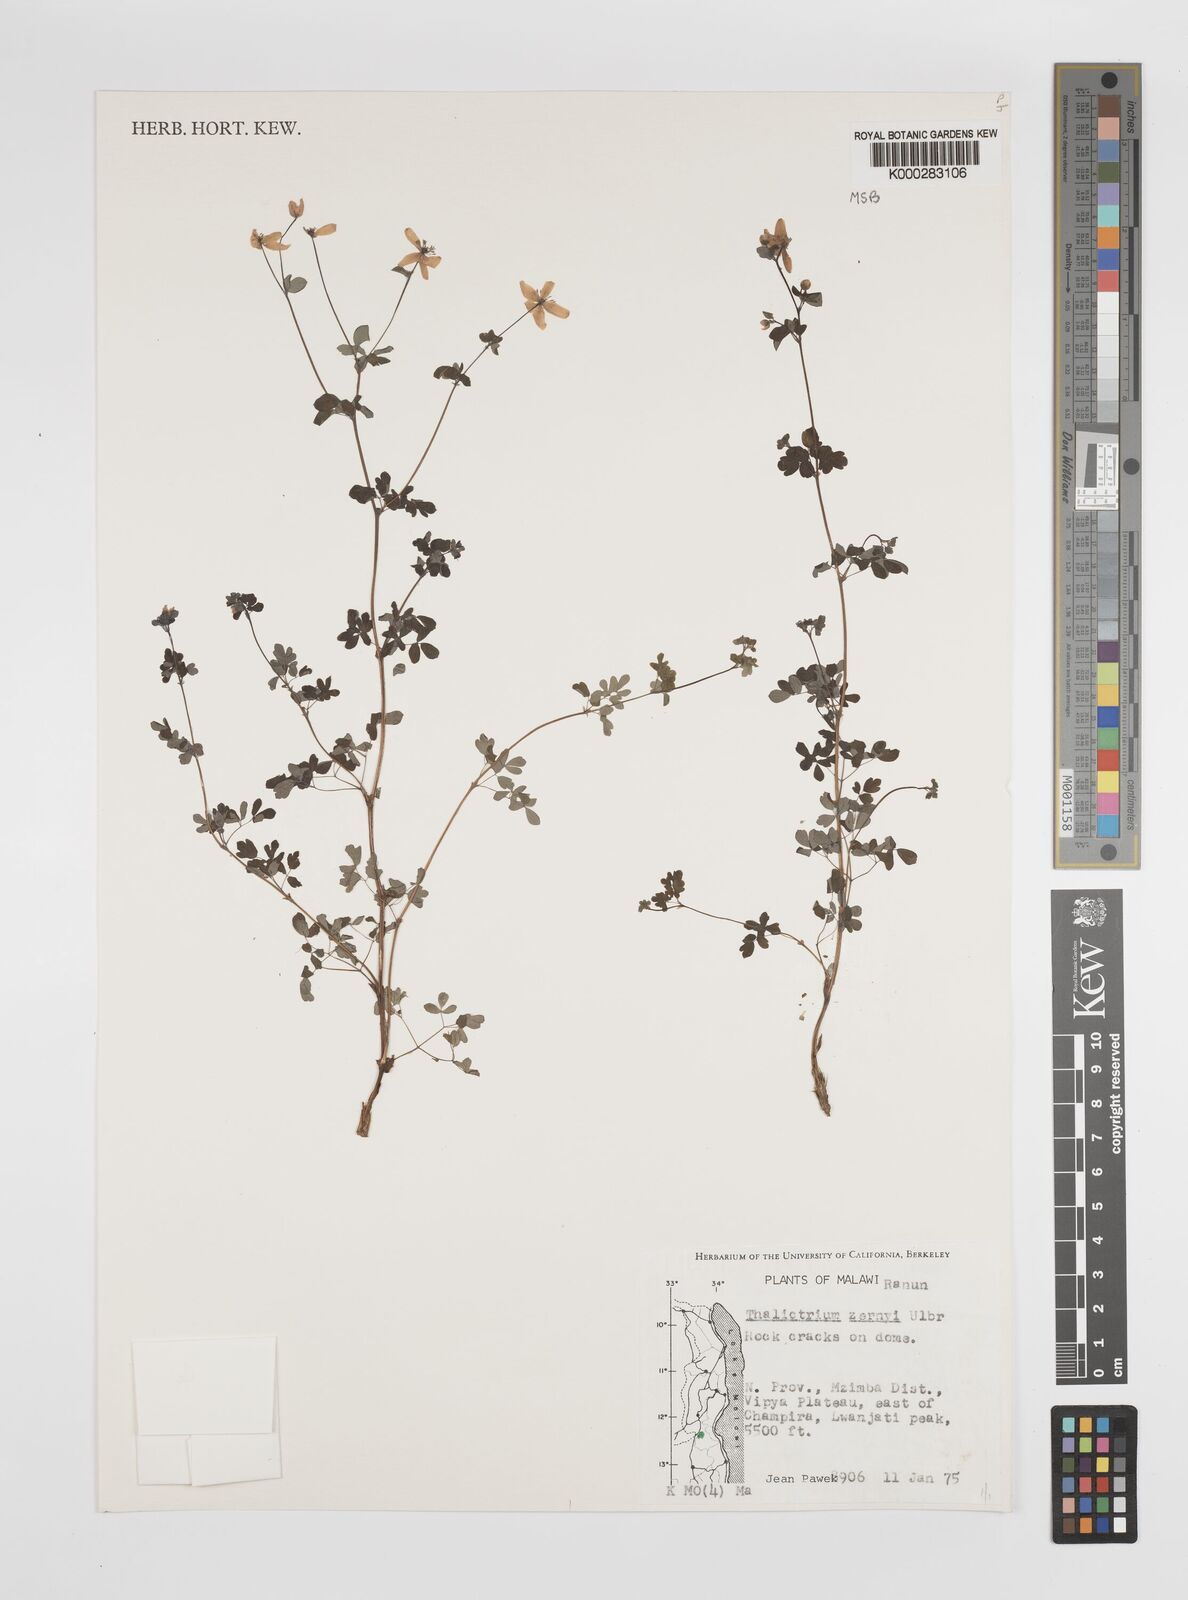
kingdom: Plantae
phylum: Tracheophyta
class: Magnoliopsida
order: Ranunculales
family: Ranunculaceae
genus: Thalictrum
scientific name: Thalictrum zernyi
